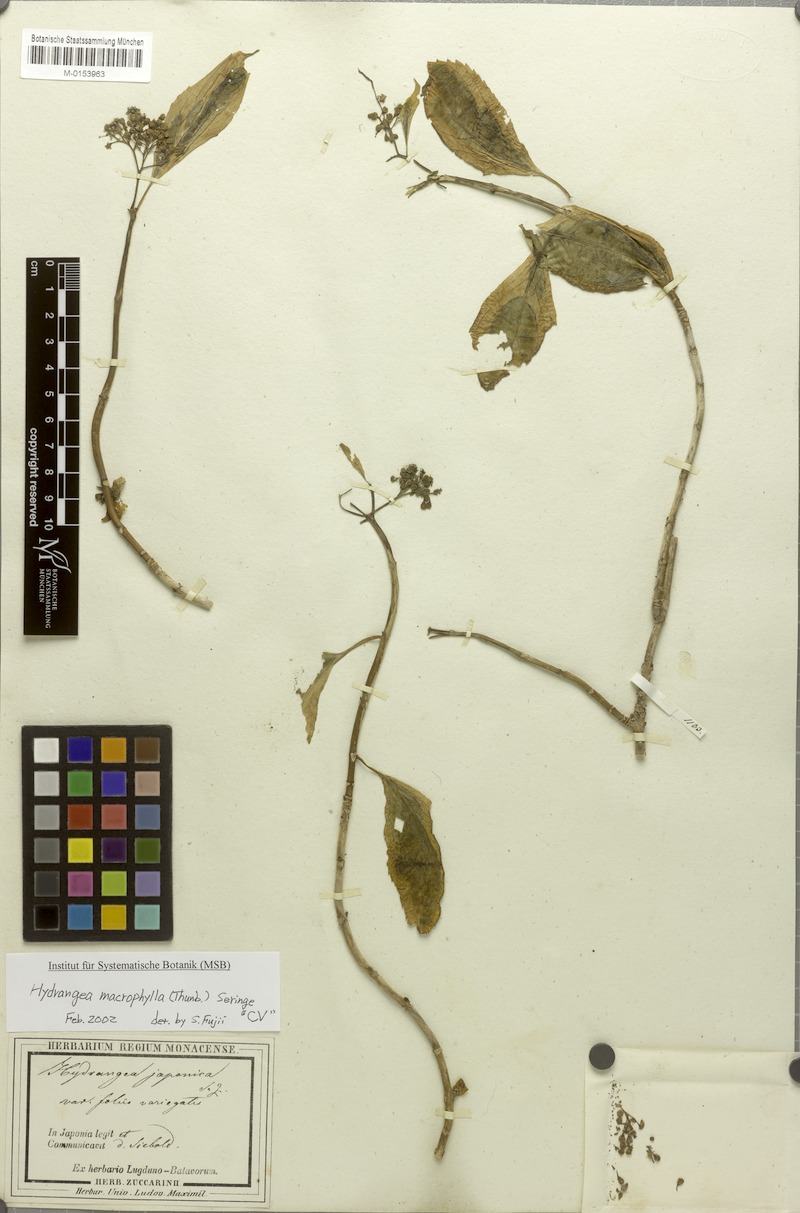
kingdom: Plantae
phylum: Tracheophyta
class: Magnoliopsida
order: Cornales
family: Hydrangeaceae
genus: Hydrangea
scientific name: Hydrangea macrophylla
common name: Hydrangea
